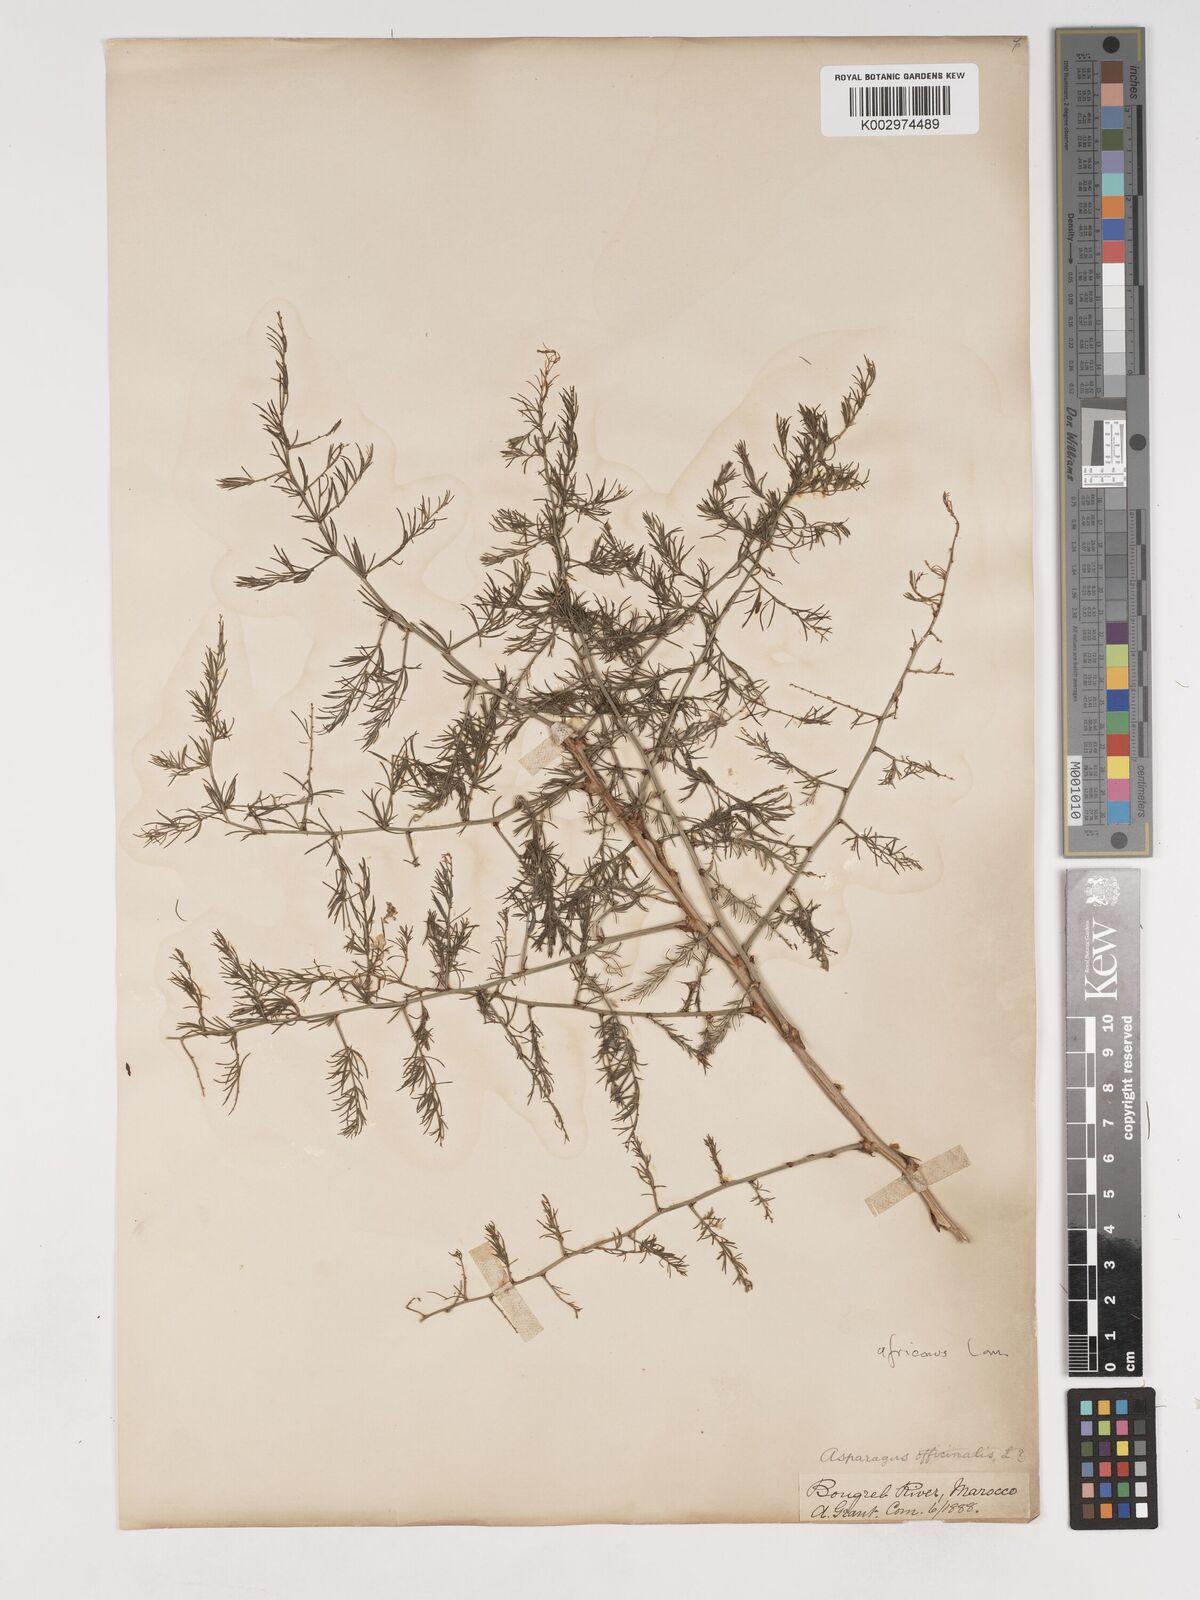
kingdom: Plantae
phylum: Tracheophyta
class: Liliopsida
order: Asparagales
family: Asparagaceae
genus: Asparagus
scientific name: Asparagus officinalis
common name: Garden asparagus
